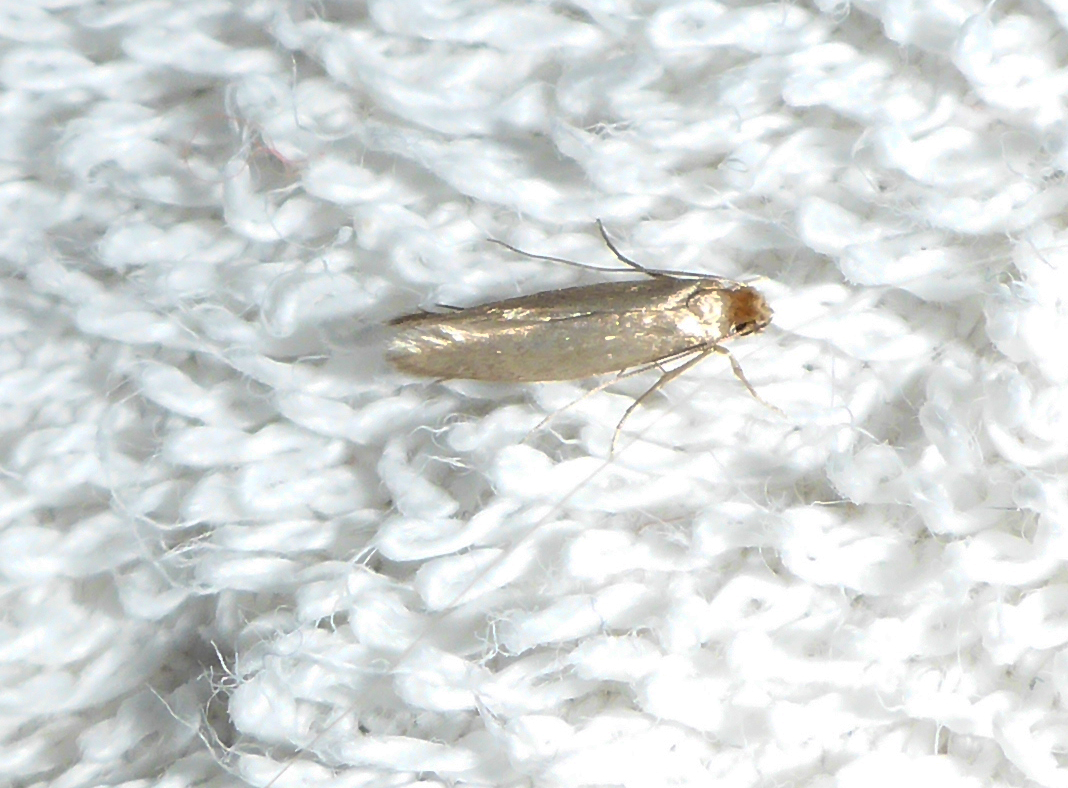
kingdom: Animalia
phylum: Arthropoda
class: Insecta
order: Lepidoptera
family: Tineidae
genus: Tineola
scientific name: Tineola bisselliella
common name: Webbing clothes moth
